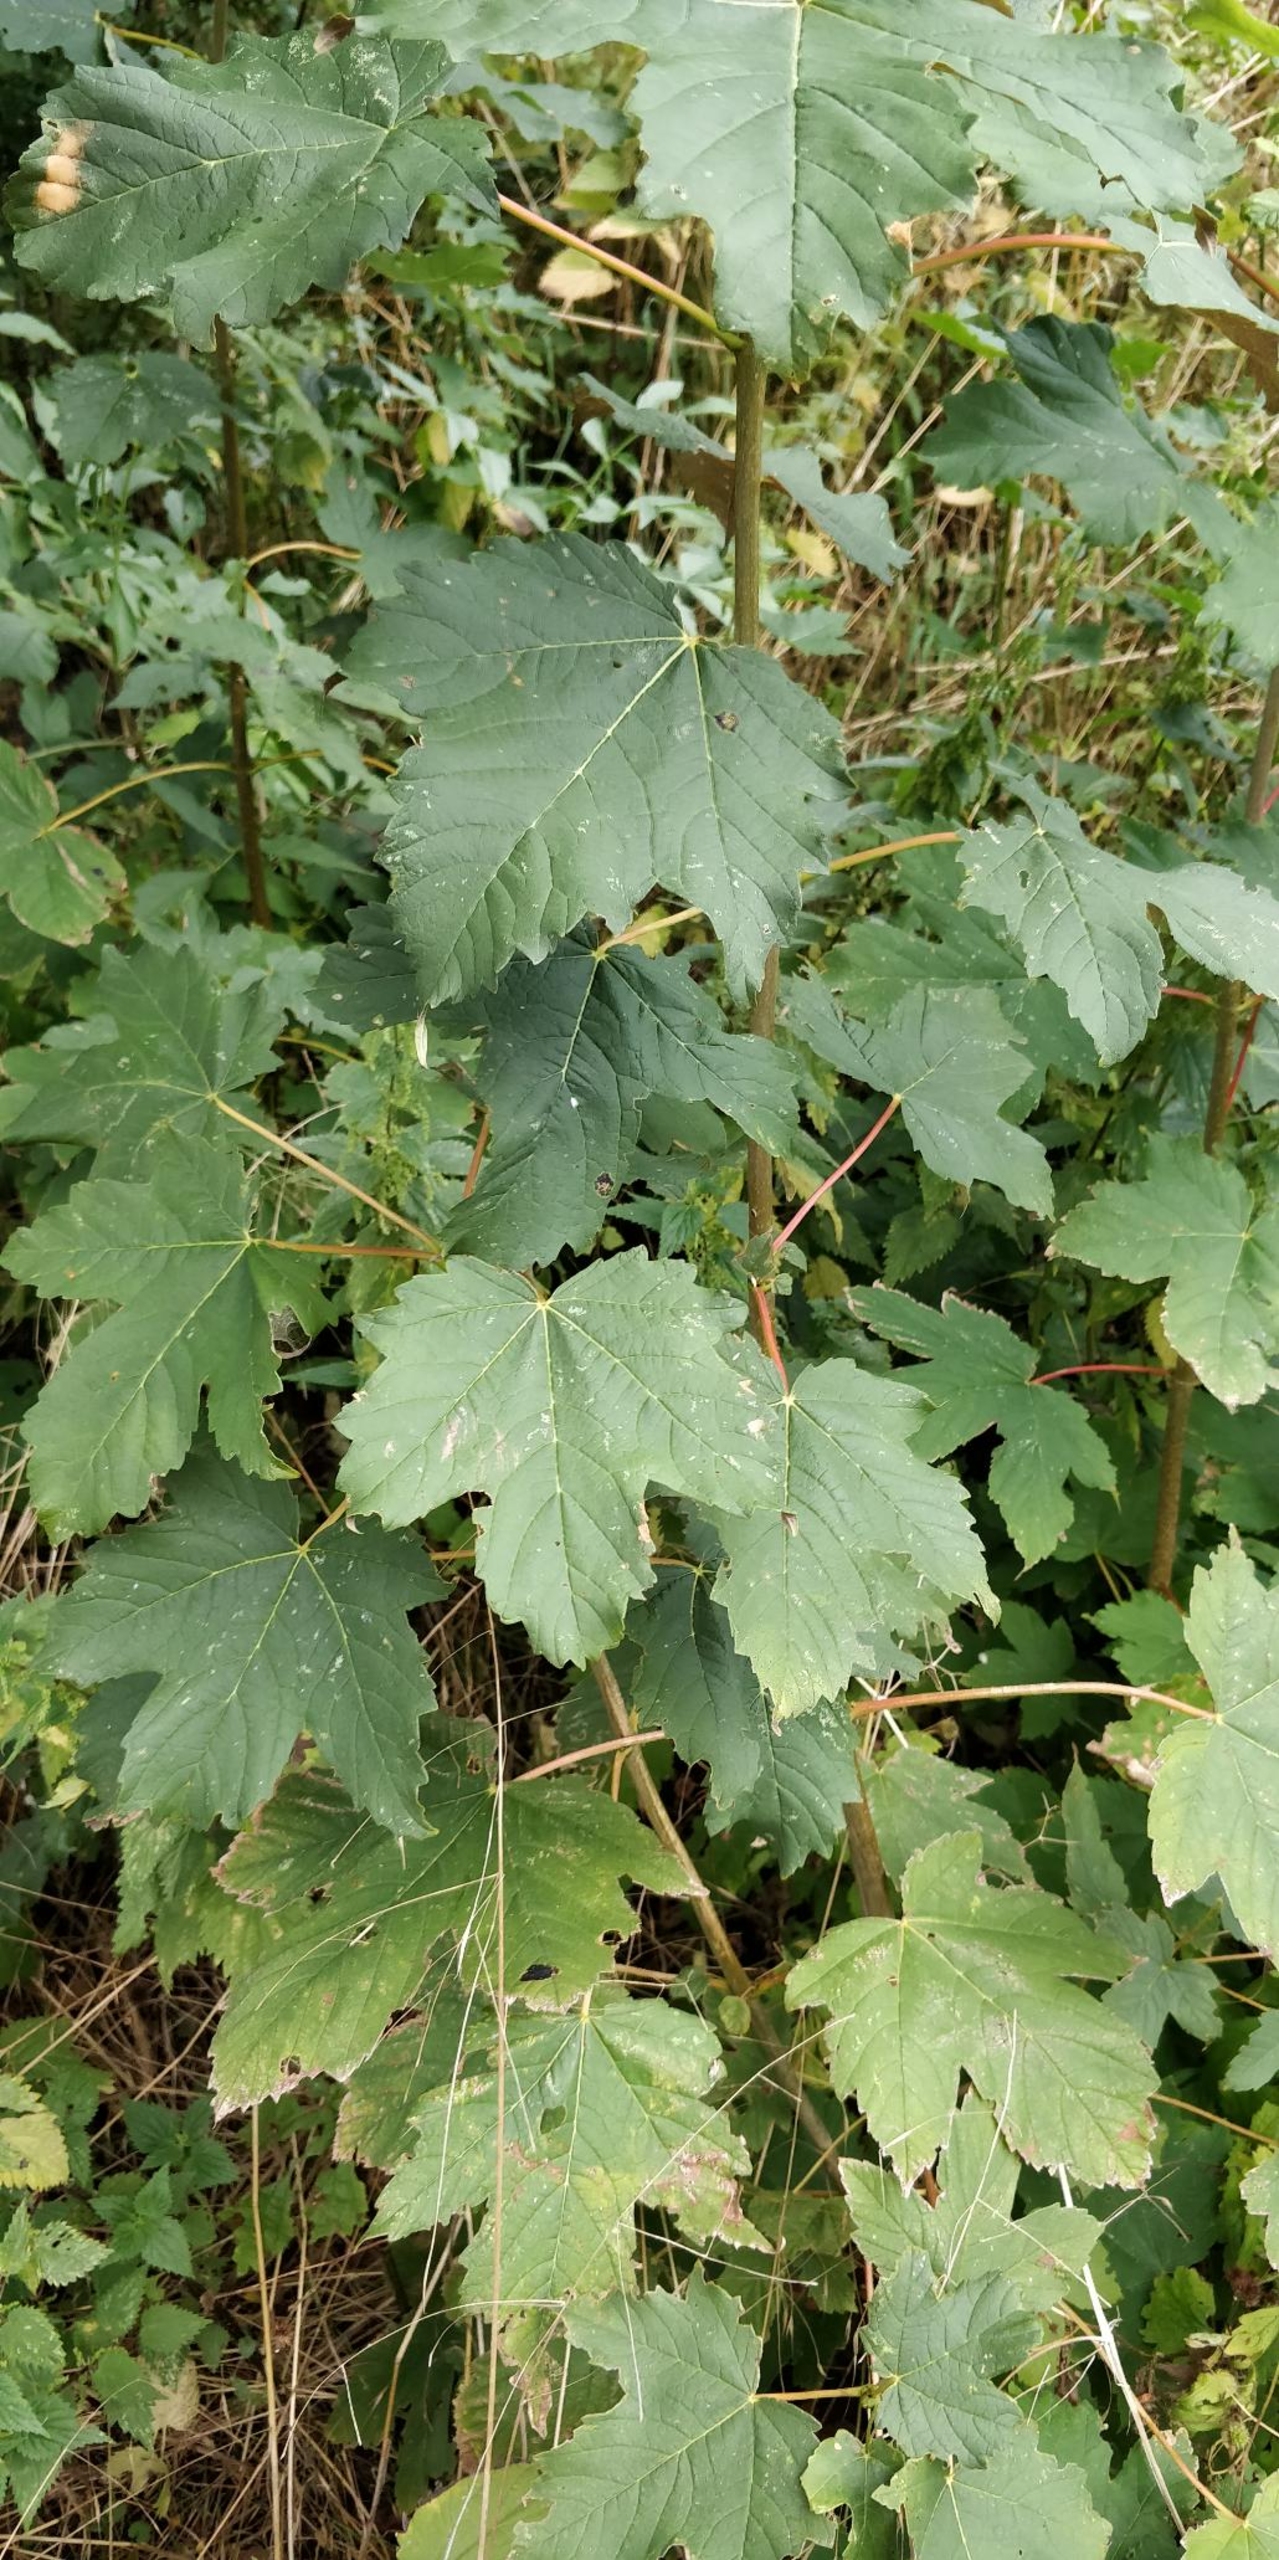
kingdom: Plantae
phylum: Tracheophyta
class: Magnoliopsida
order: Sapindales
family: Sapindaceae
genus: Acer
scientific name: Acer pseudoplatanus
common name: Ahorn
